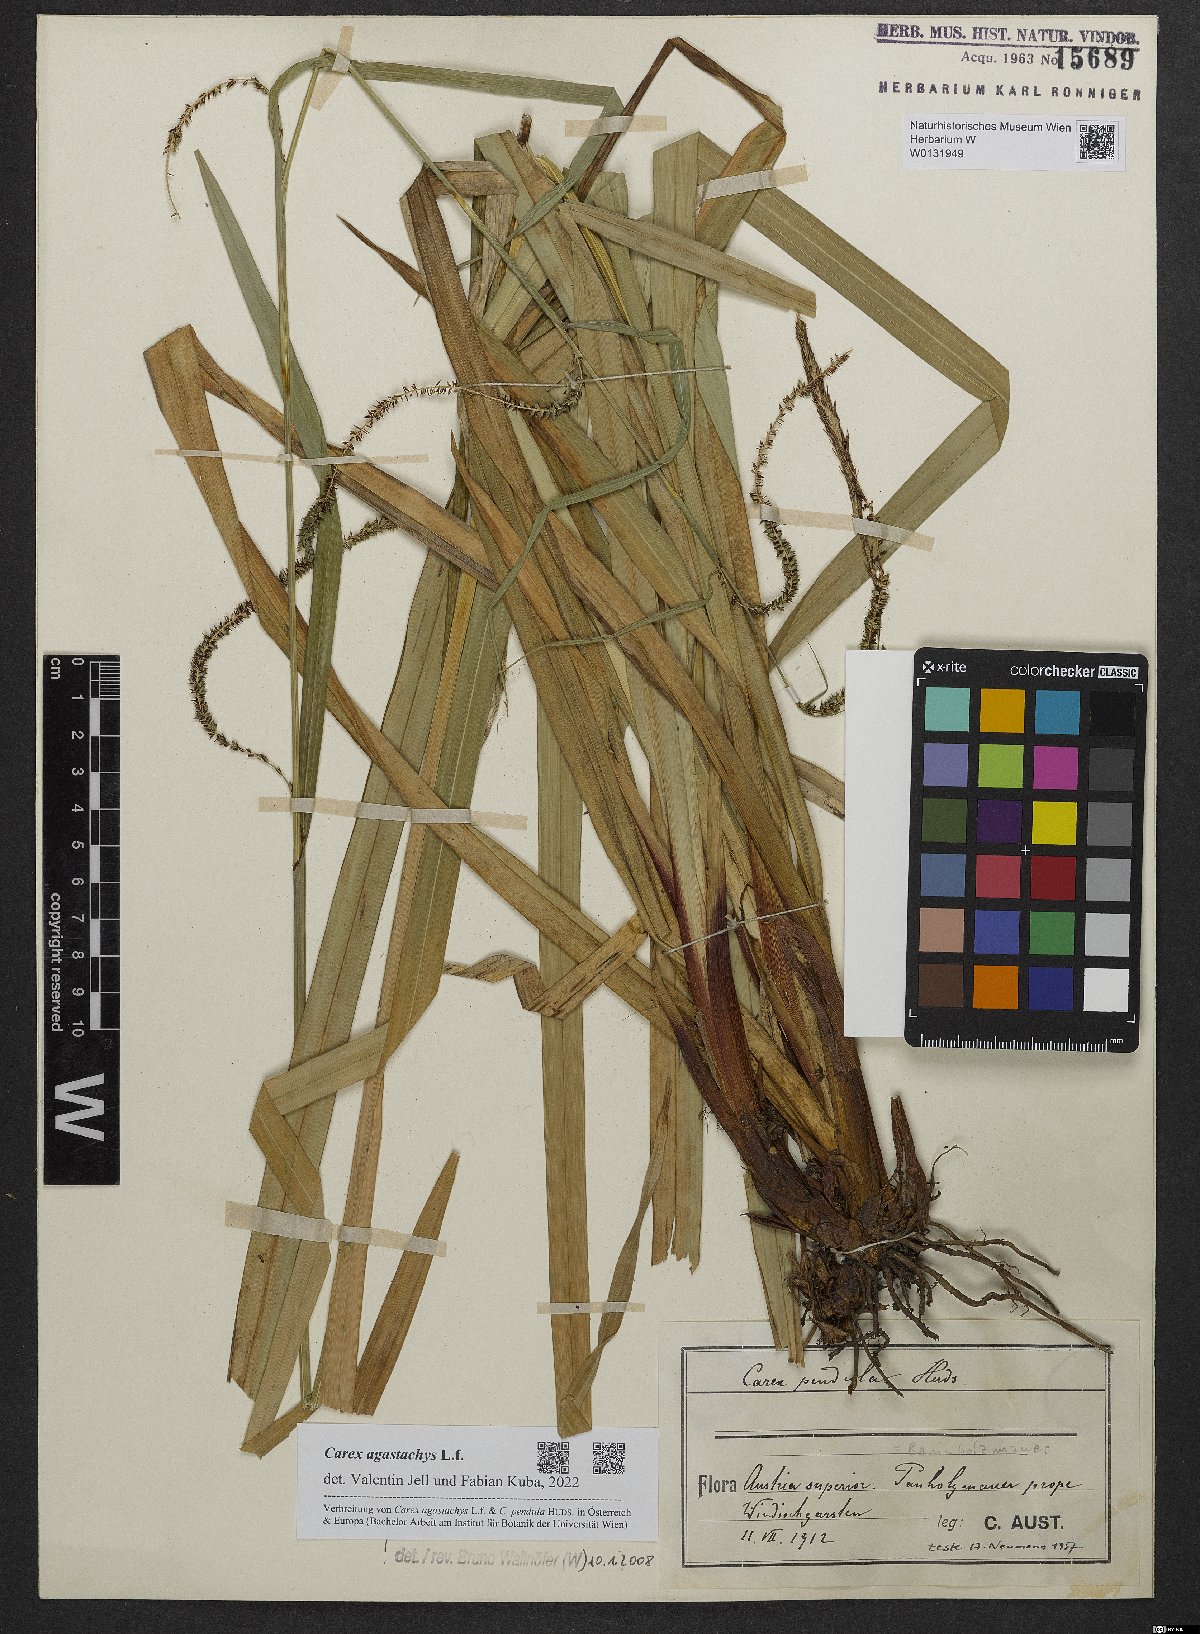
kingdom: Plantae
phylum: Tracheophyta
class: Liliopsida
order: Poales
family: Cyperaceae
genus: Carex
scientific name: Carex agastachys
